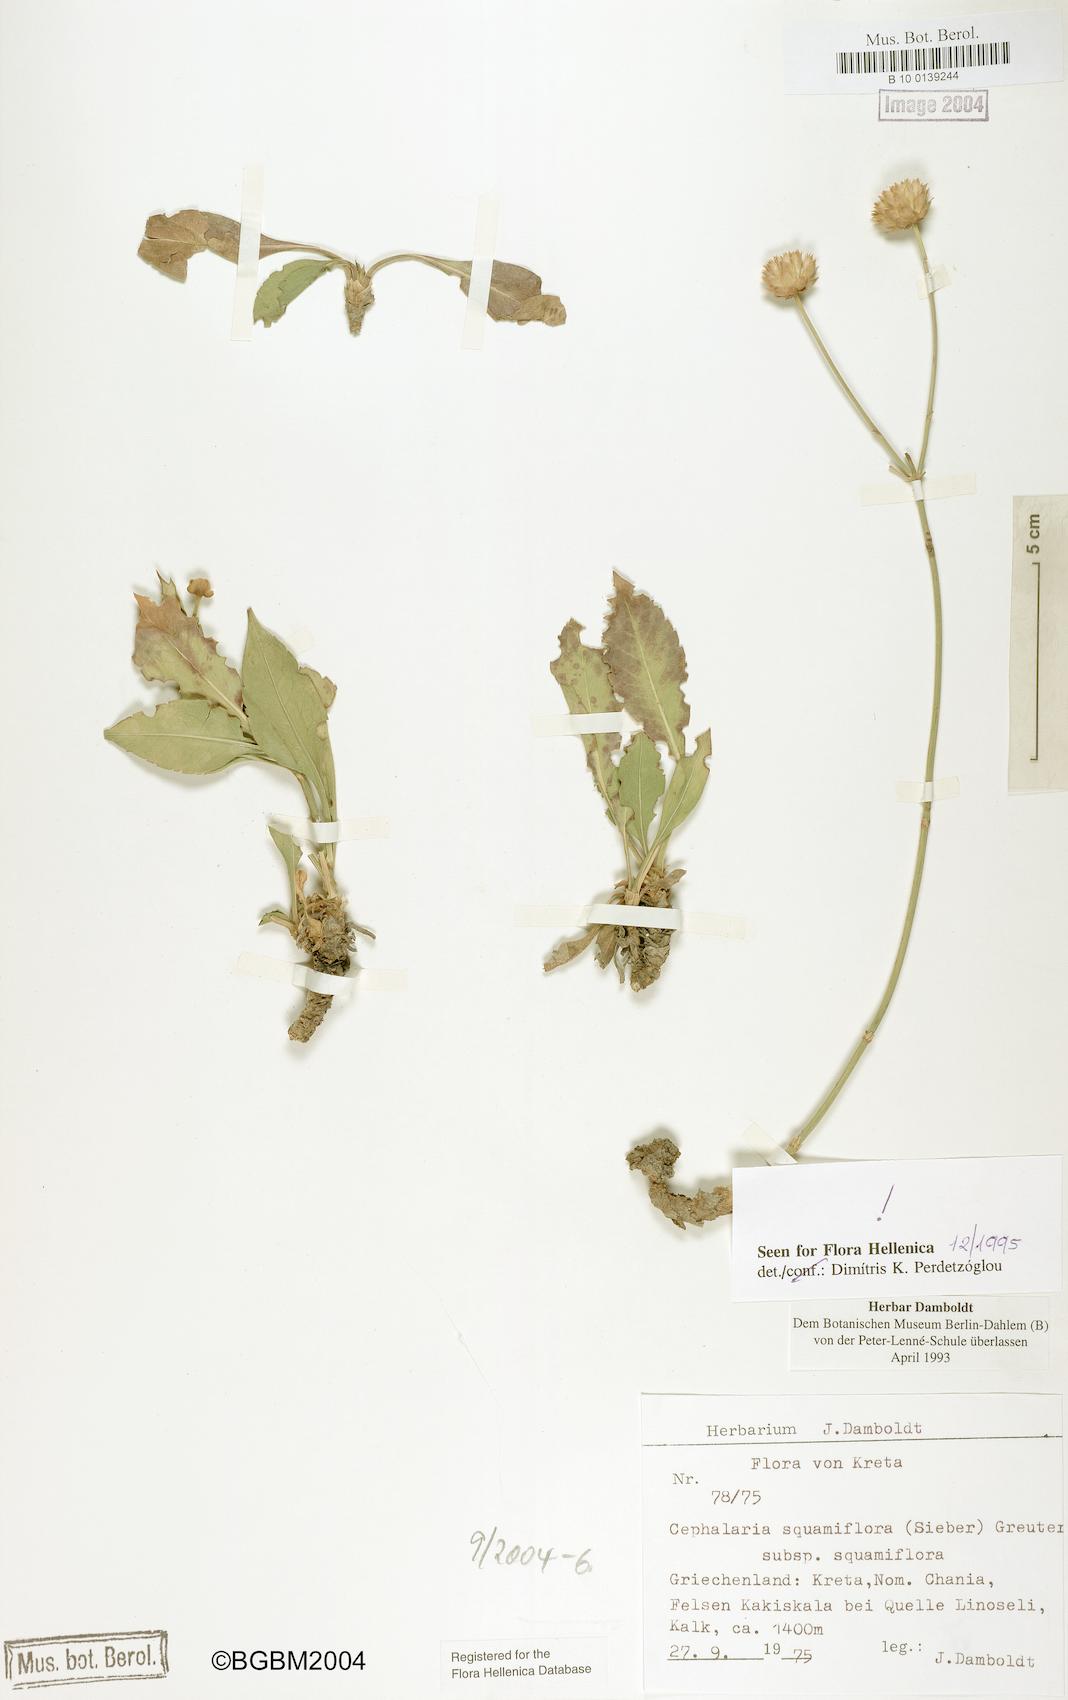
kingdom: Plantae
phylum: Tracheophyta
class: Magnoliopsida
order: Dipsacales
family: Caprifoliaceae
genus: Cephalaria
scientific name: Cephalaria squamiflora
